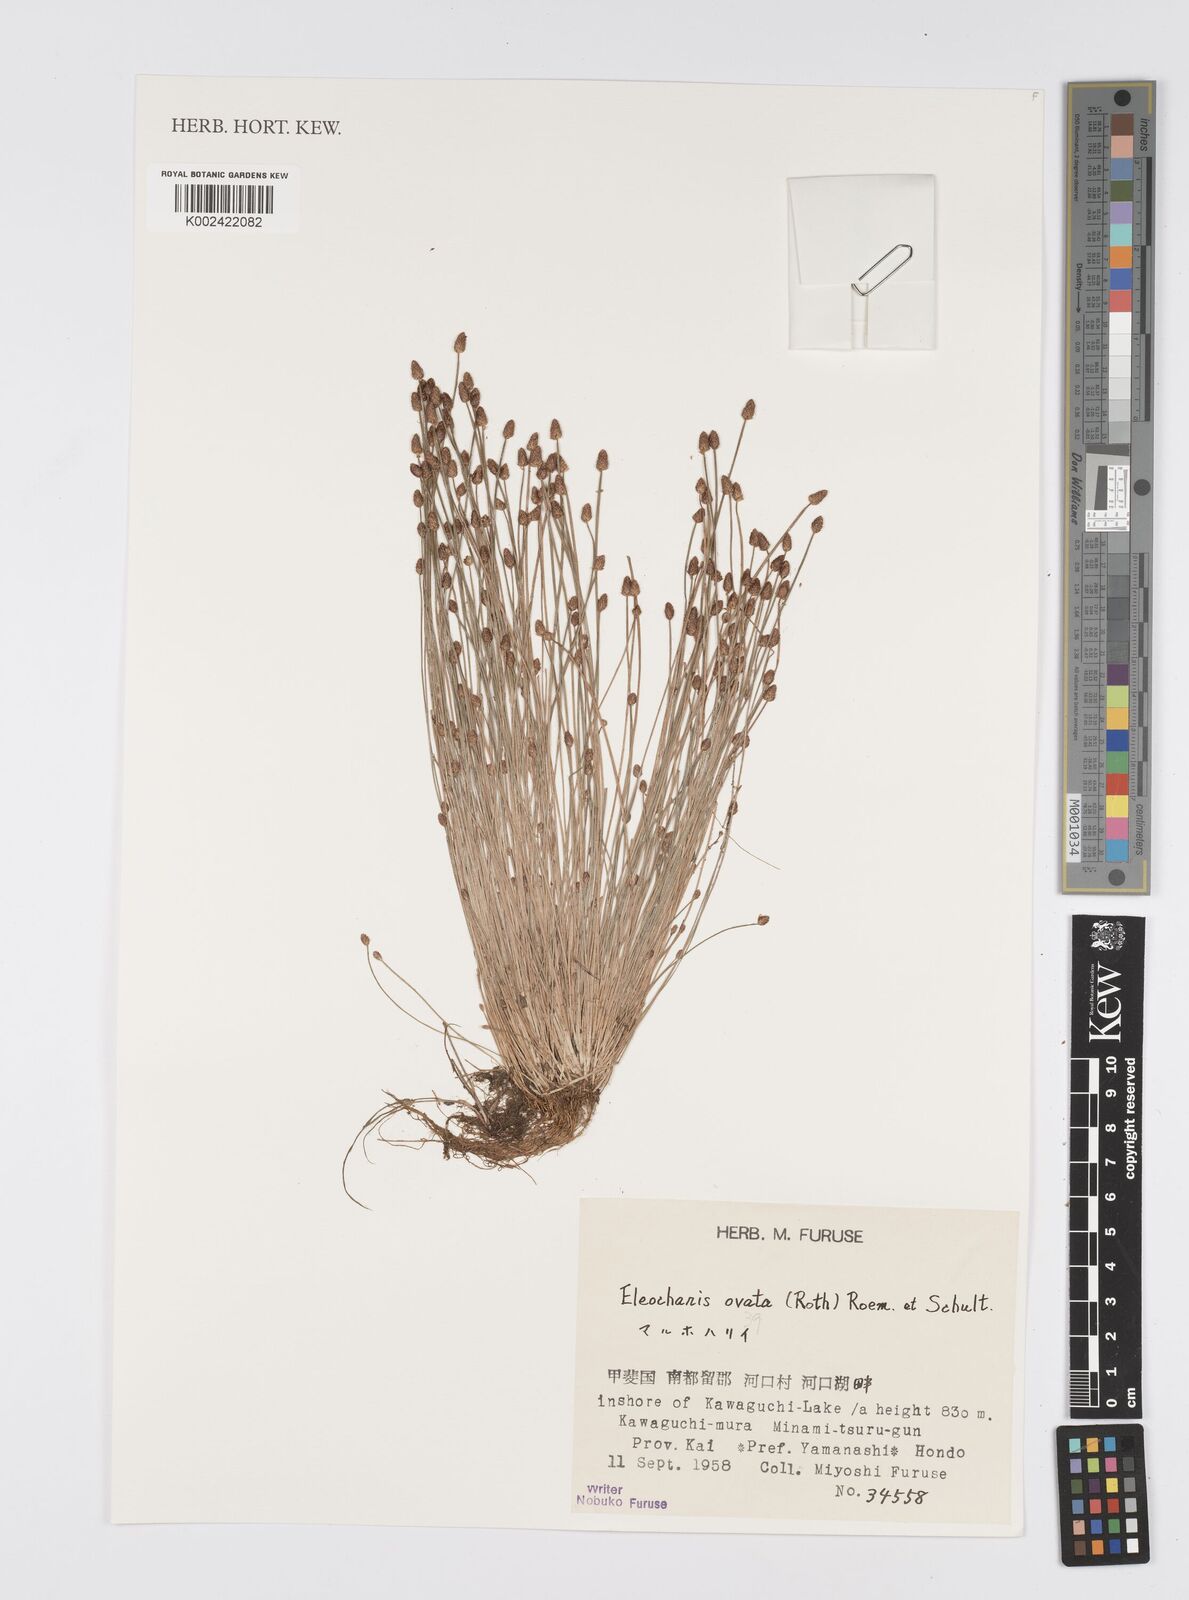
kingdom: Plantae
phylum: Tracheophyta
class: Liliopsida
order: Poales
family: Cyperaceae
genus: Eleocharis
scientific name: Eleocharis ovata
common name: Oval spike-rush
